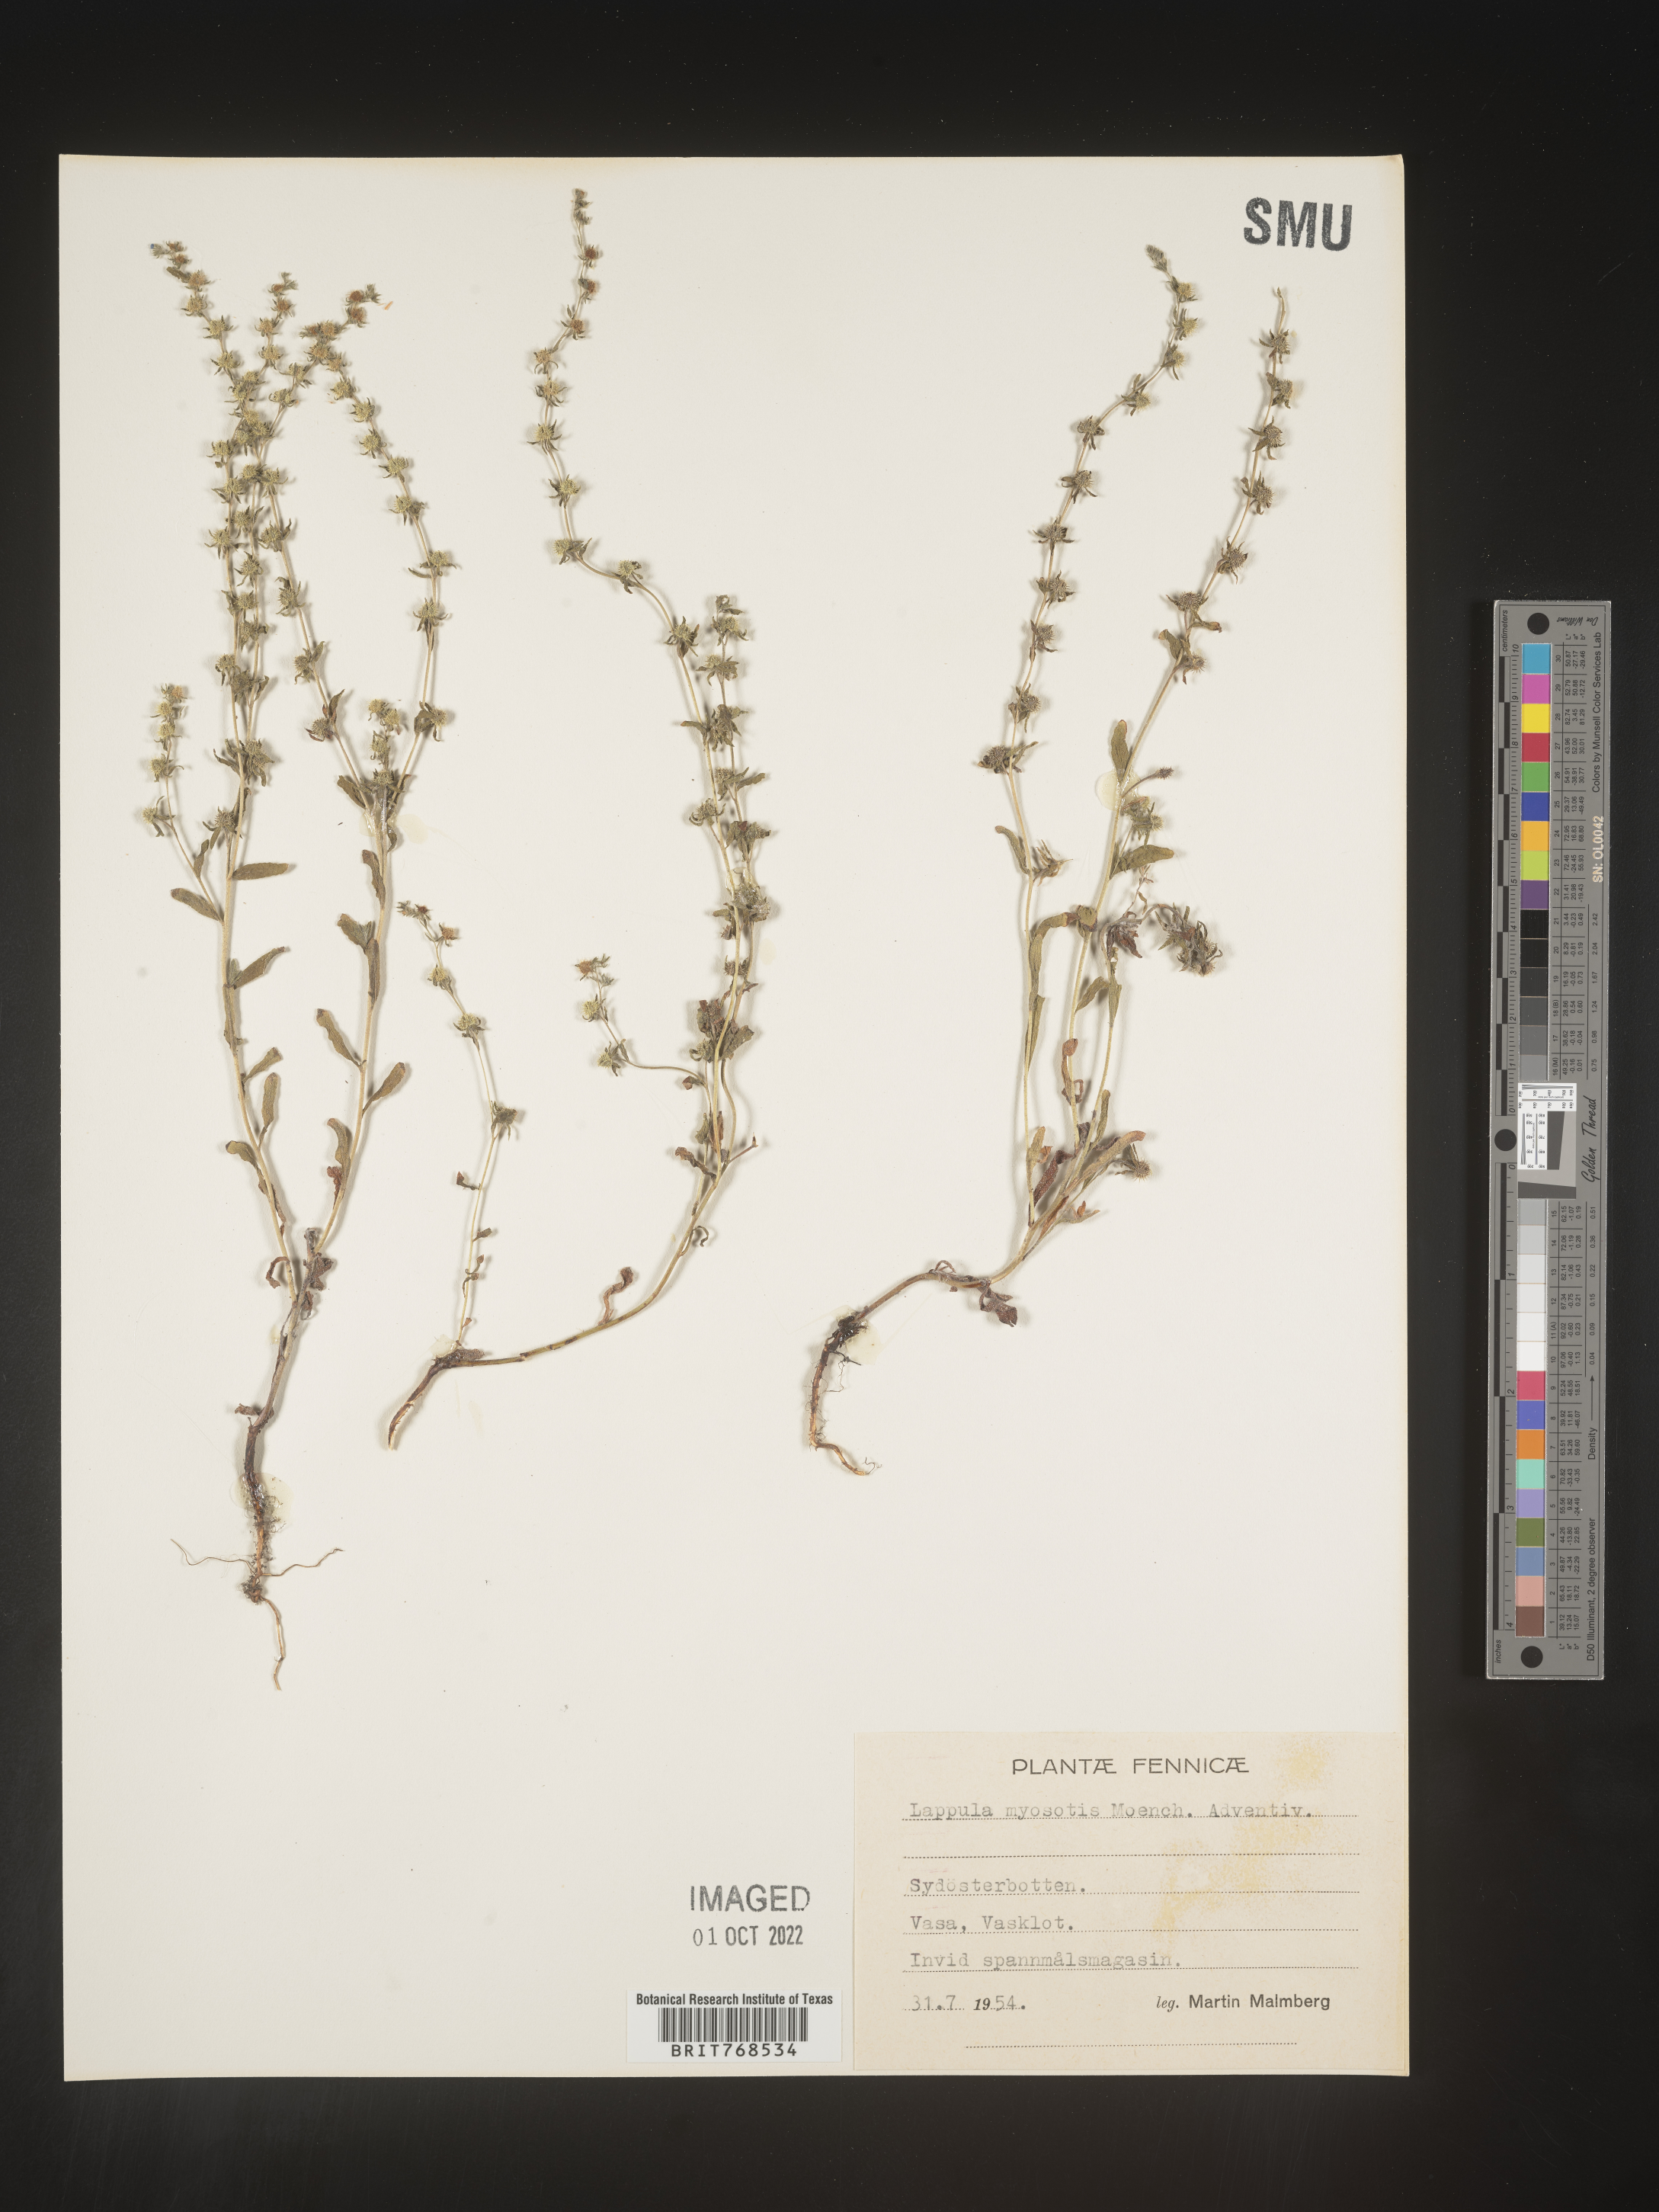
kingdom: Plantae
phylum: Tracheophyta
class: Magnoliopsida
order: Boraginales
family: Boraginaceae
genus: Lappula
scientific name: Lappula
